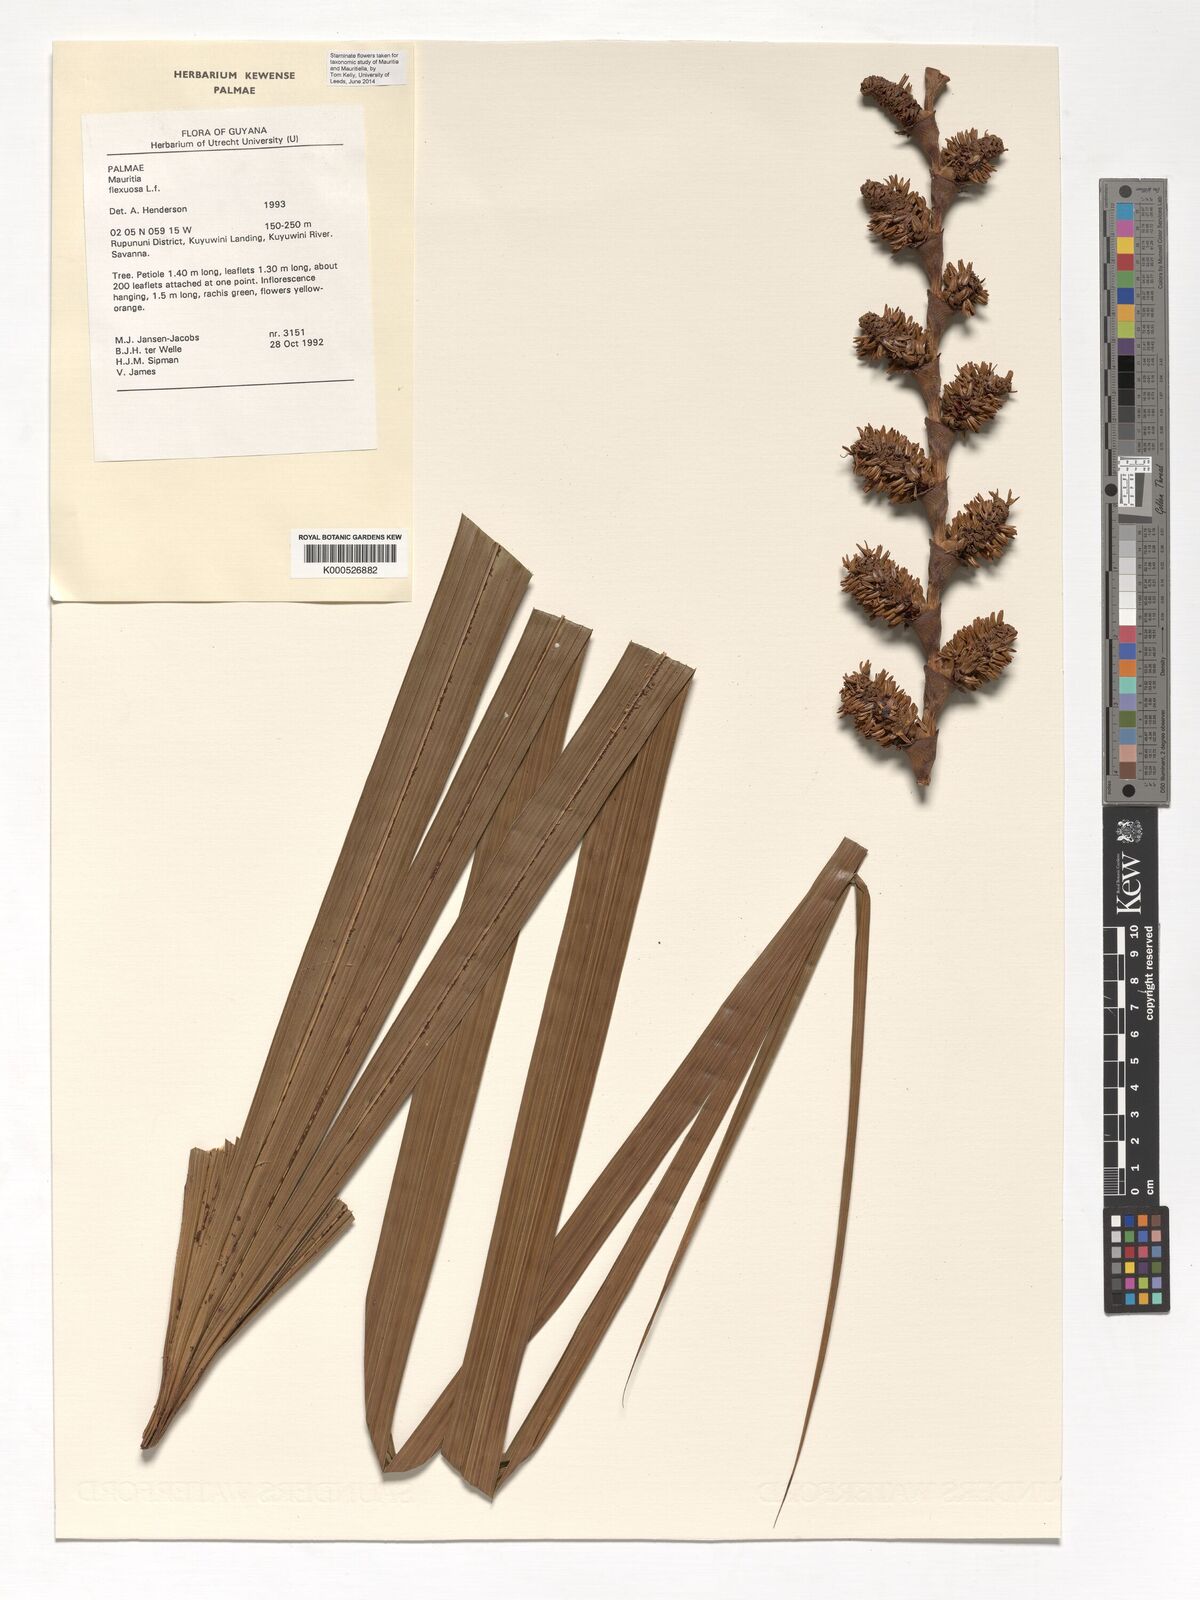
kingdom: Plantae
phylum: Tracheophyta
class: Liliopsida
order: Arecales
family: Arecaceae
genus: Mauritia
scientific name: Mauritia flexuosa
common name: Tree-of-life
